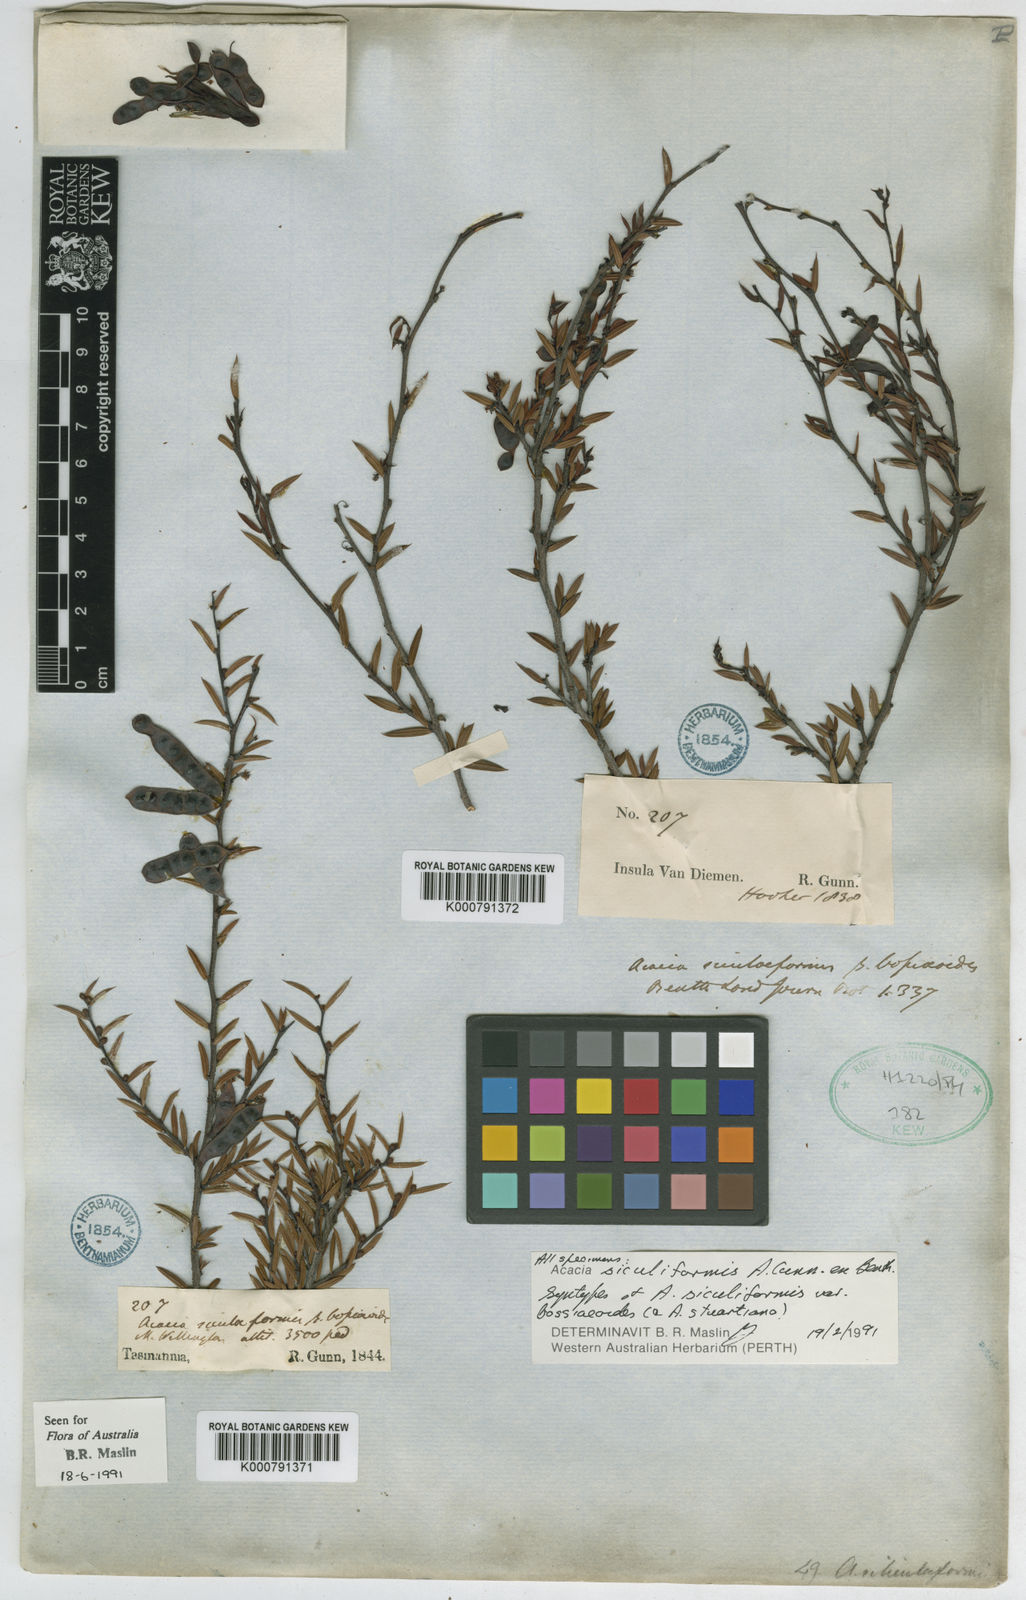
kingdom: Plantae
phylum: Tracheophyta
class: Magnoliopsida
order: Fabales
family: Fabaceae
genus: Acacia
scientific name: Acacia
